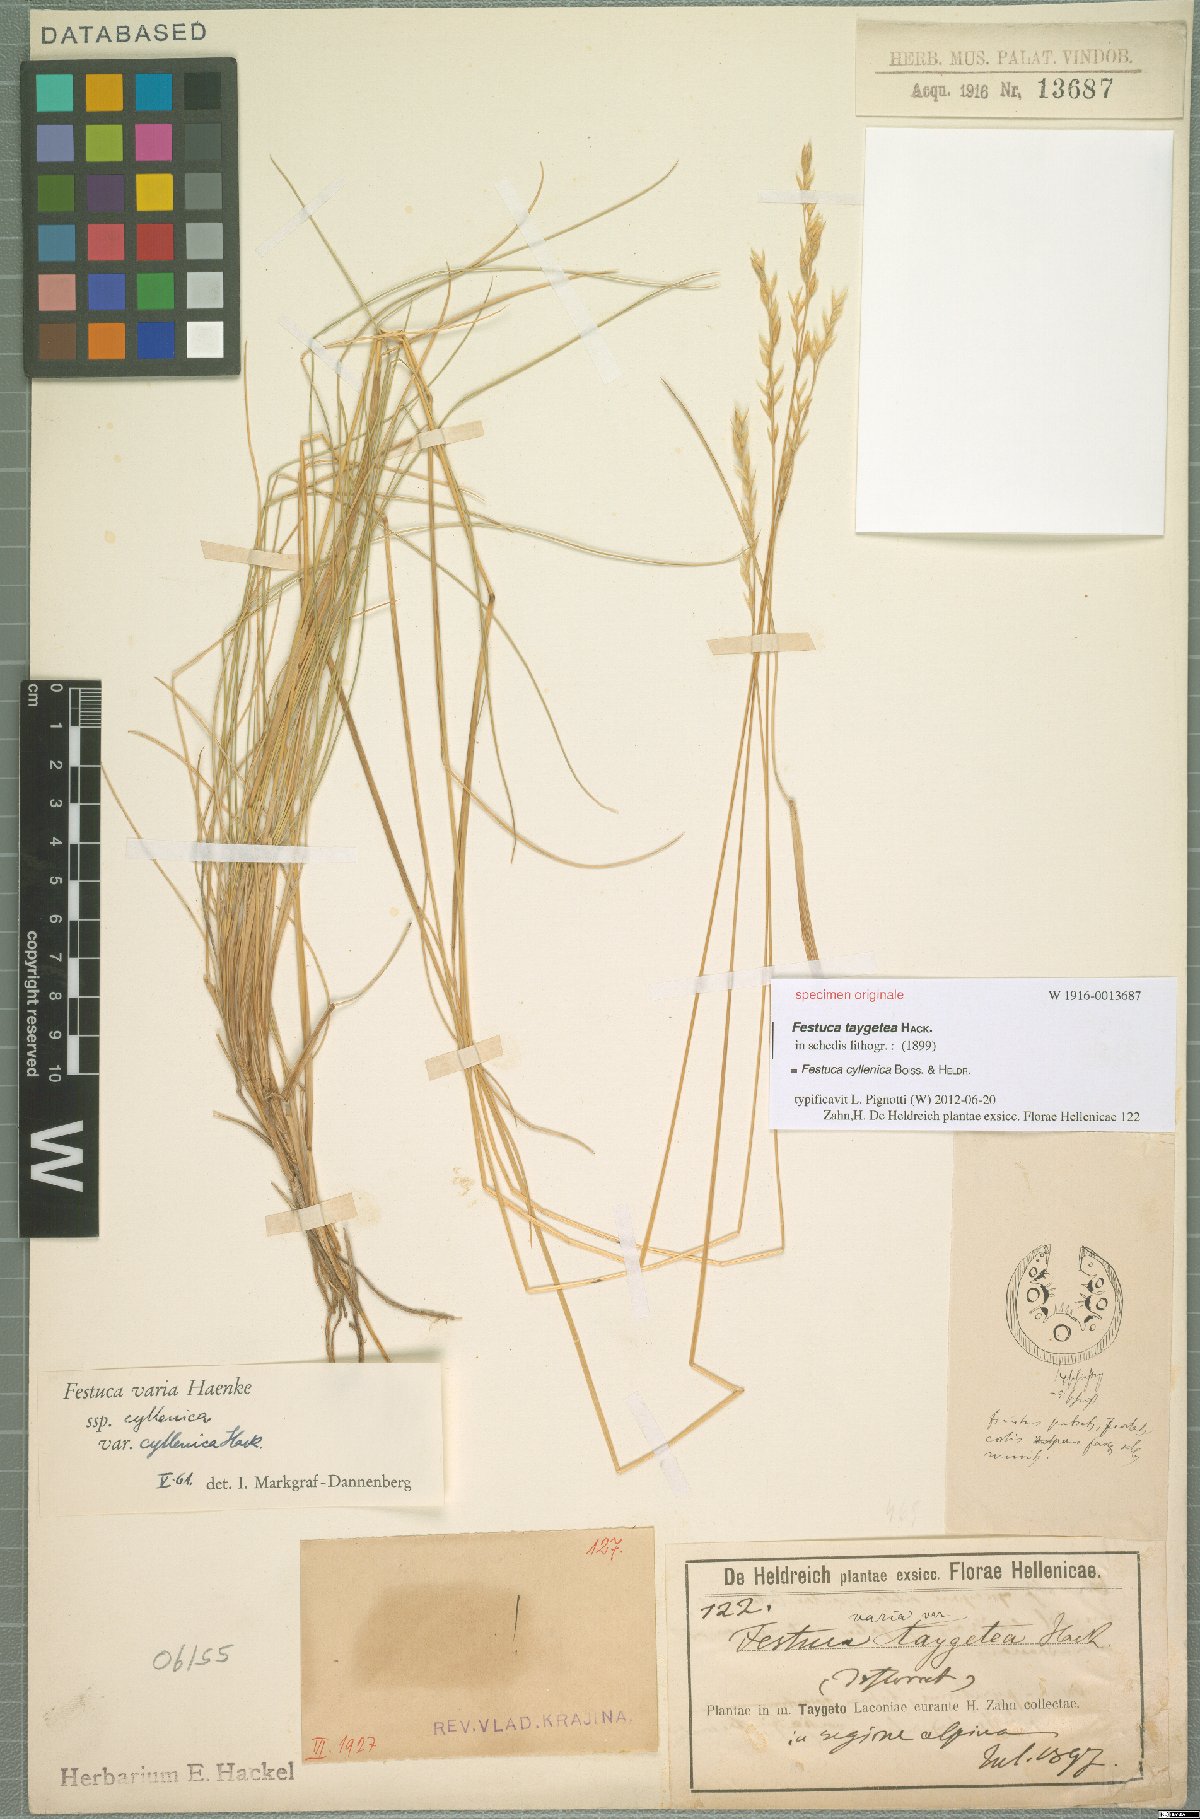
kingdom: Plantae
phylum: Tracheophyta
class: Liliopsida
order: Poales
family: Poaceae
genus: Festuca
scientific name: Festuca cyllenica
